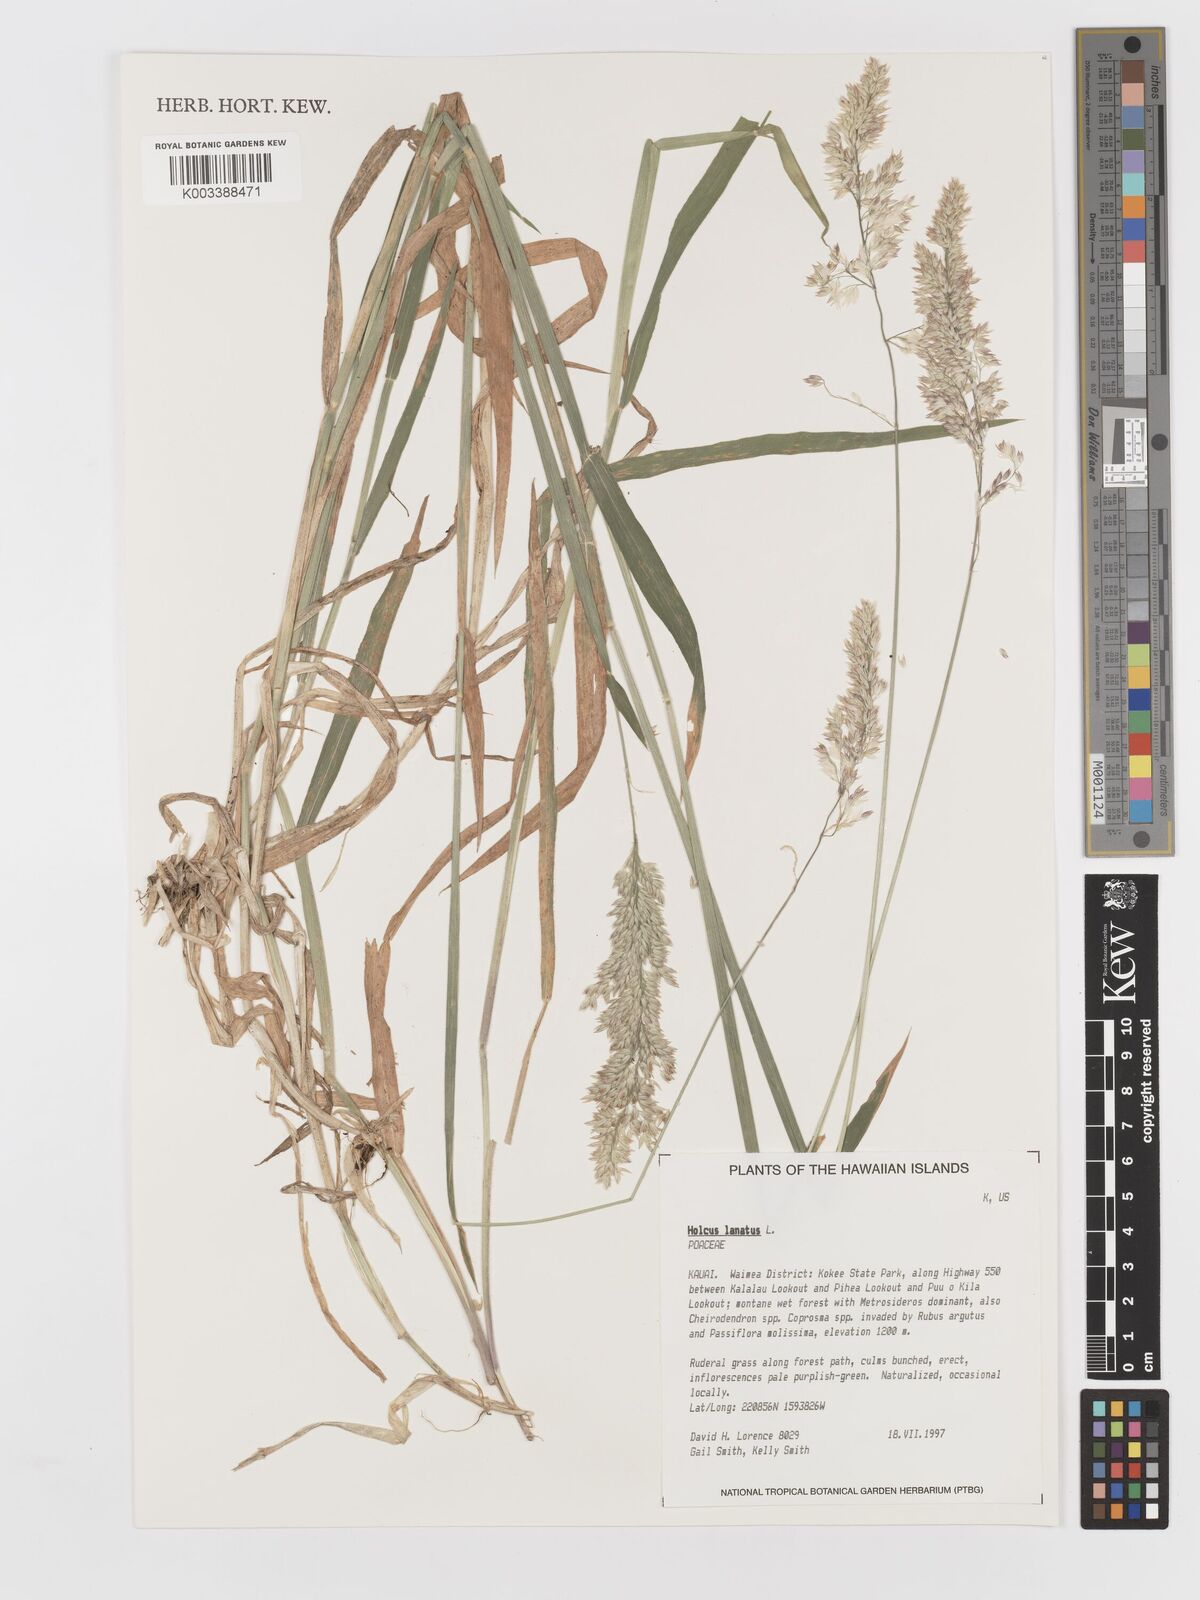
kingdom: Plantae
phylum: Tracheophyta
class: Liliopsida
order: Poales
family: Poaceae
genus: Holcus
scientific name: Holcus lanatus
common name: Yorkshire-fog
